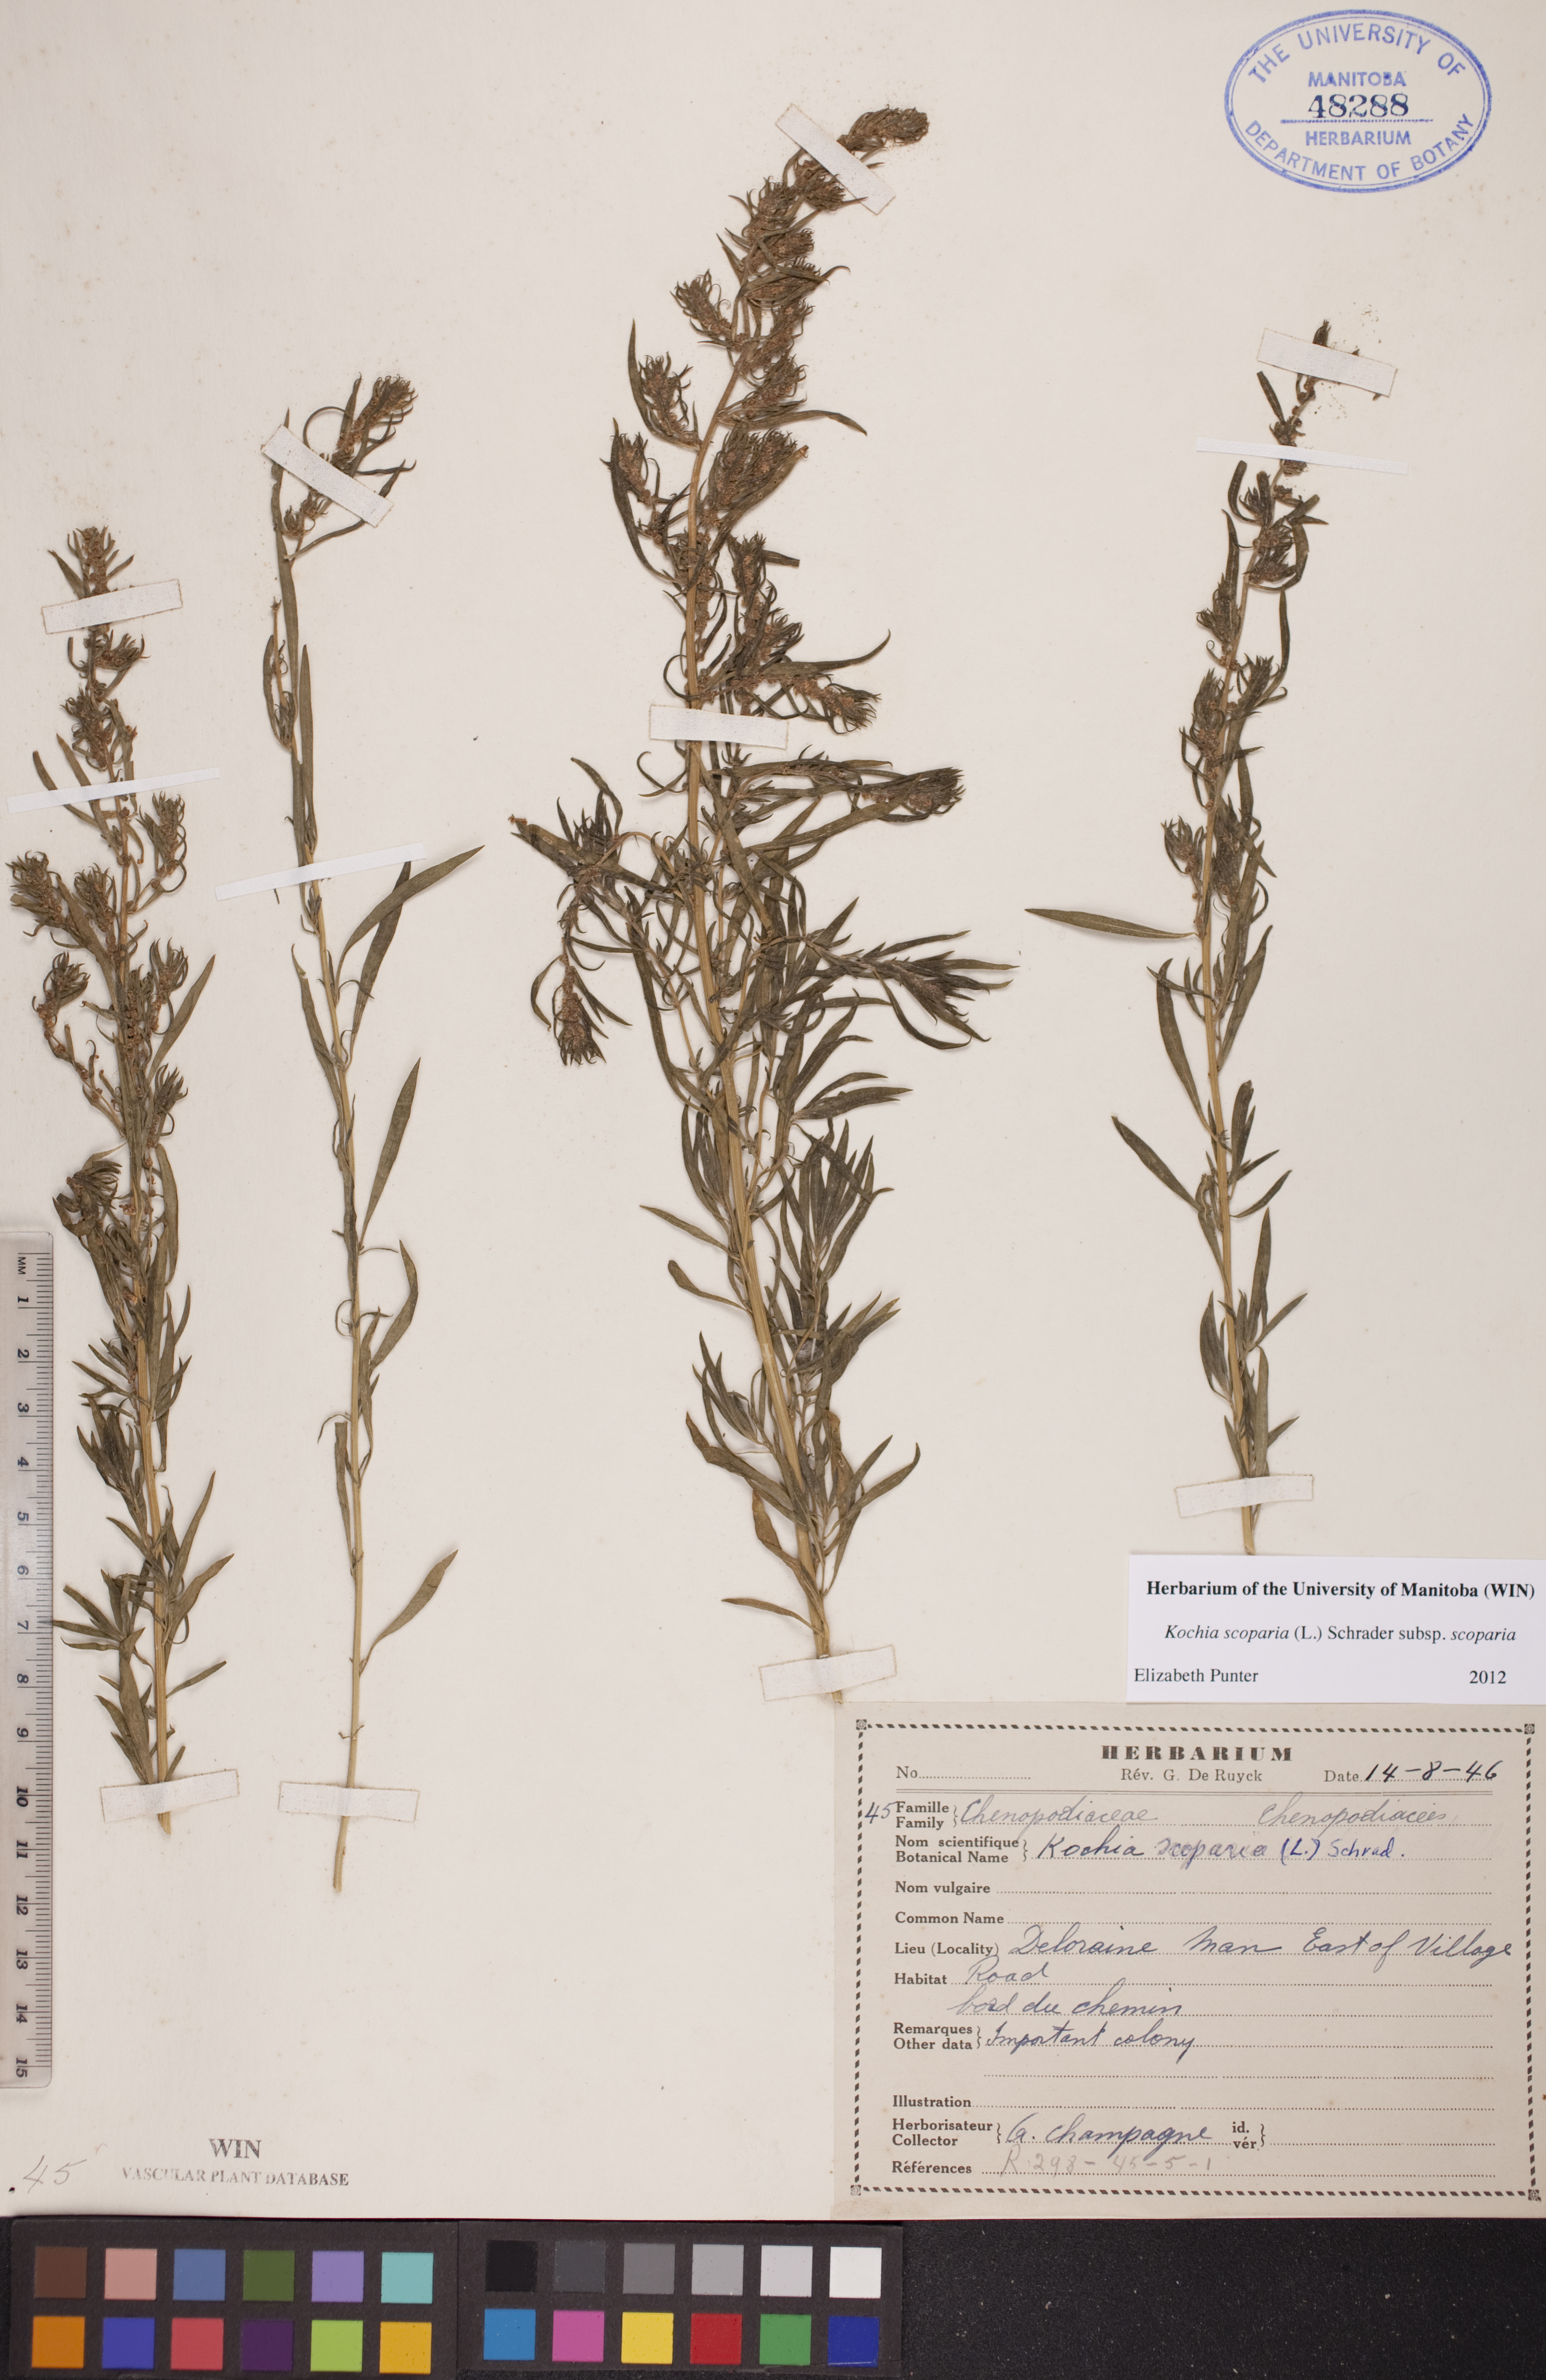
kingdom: Plantae
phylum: Tracheophyta
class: Magnoliopsida
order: Caryophyllales
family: Amaranthaceae
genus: Bassia
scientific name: Bassia scoparia
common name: Belvedere
